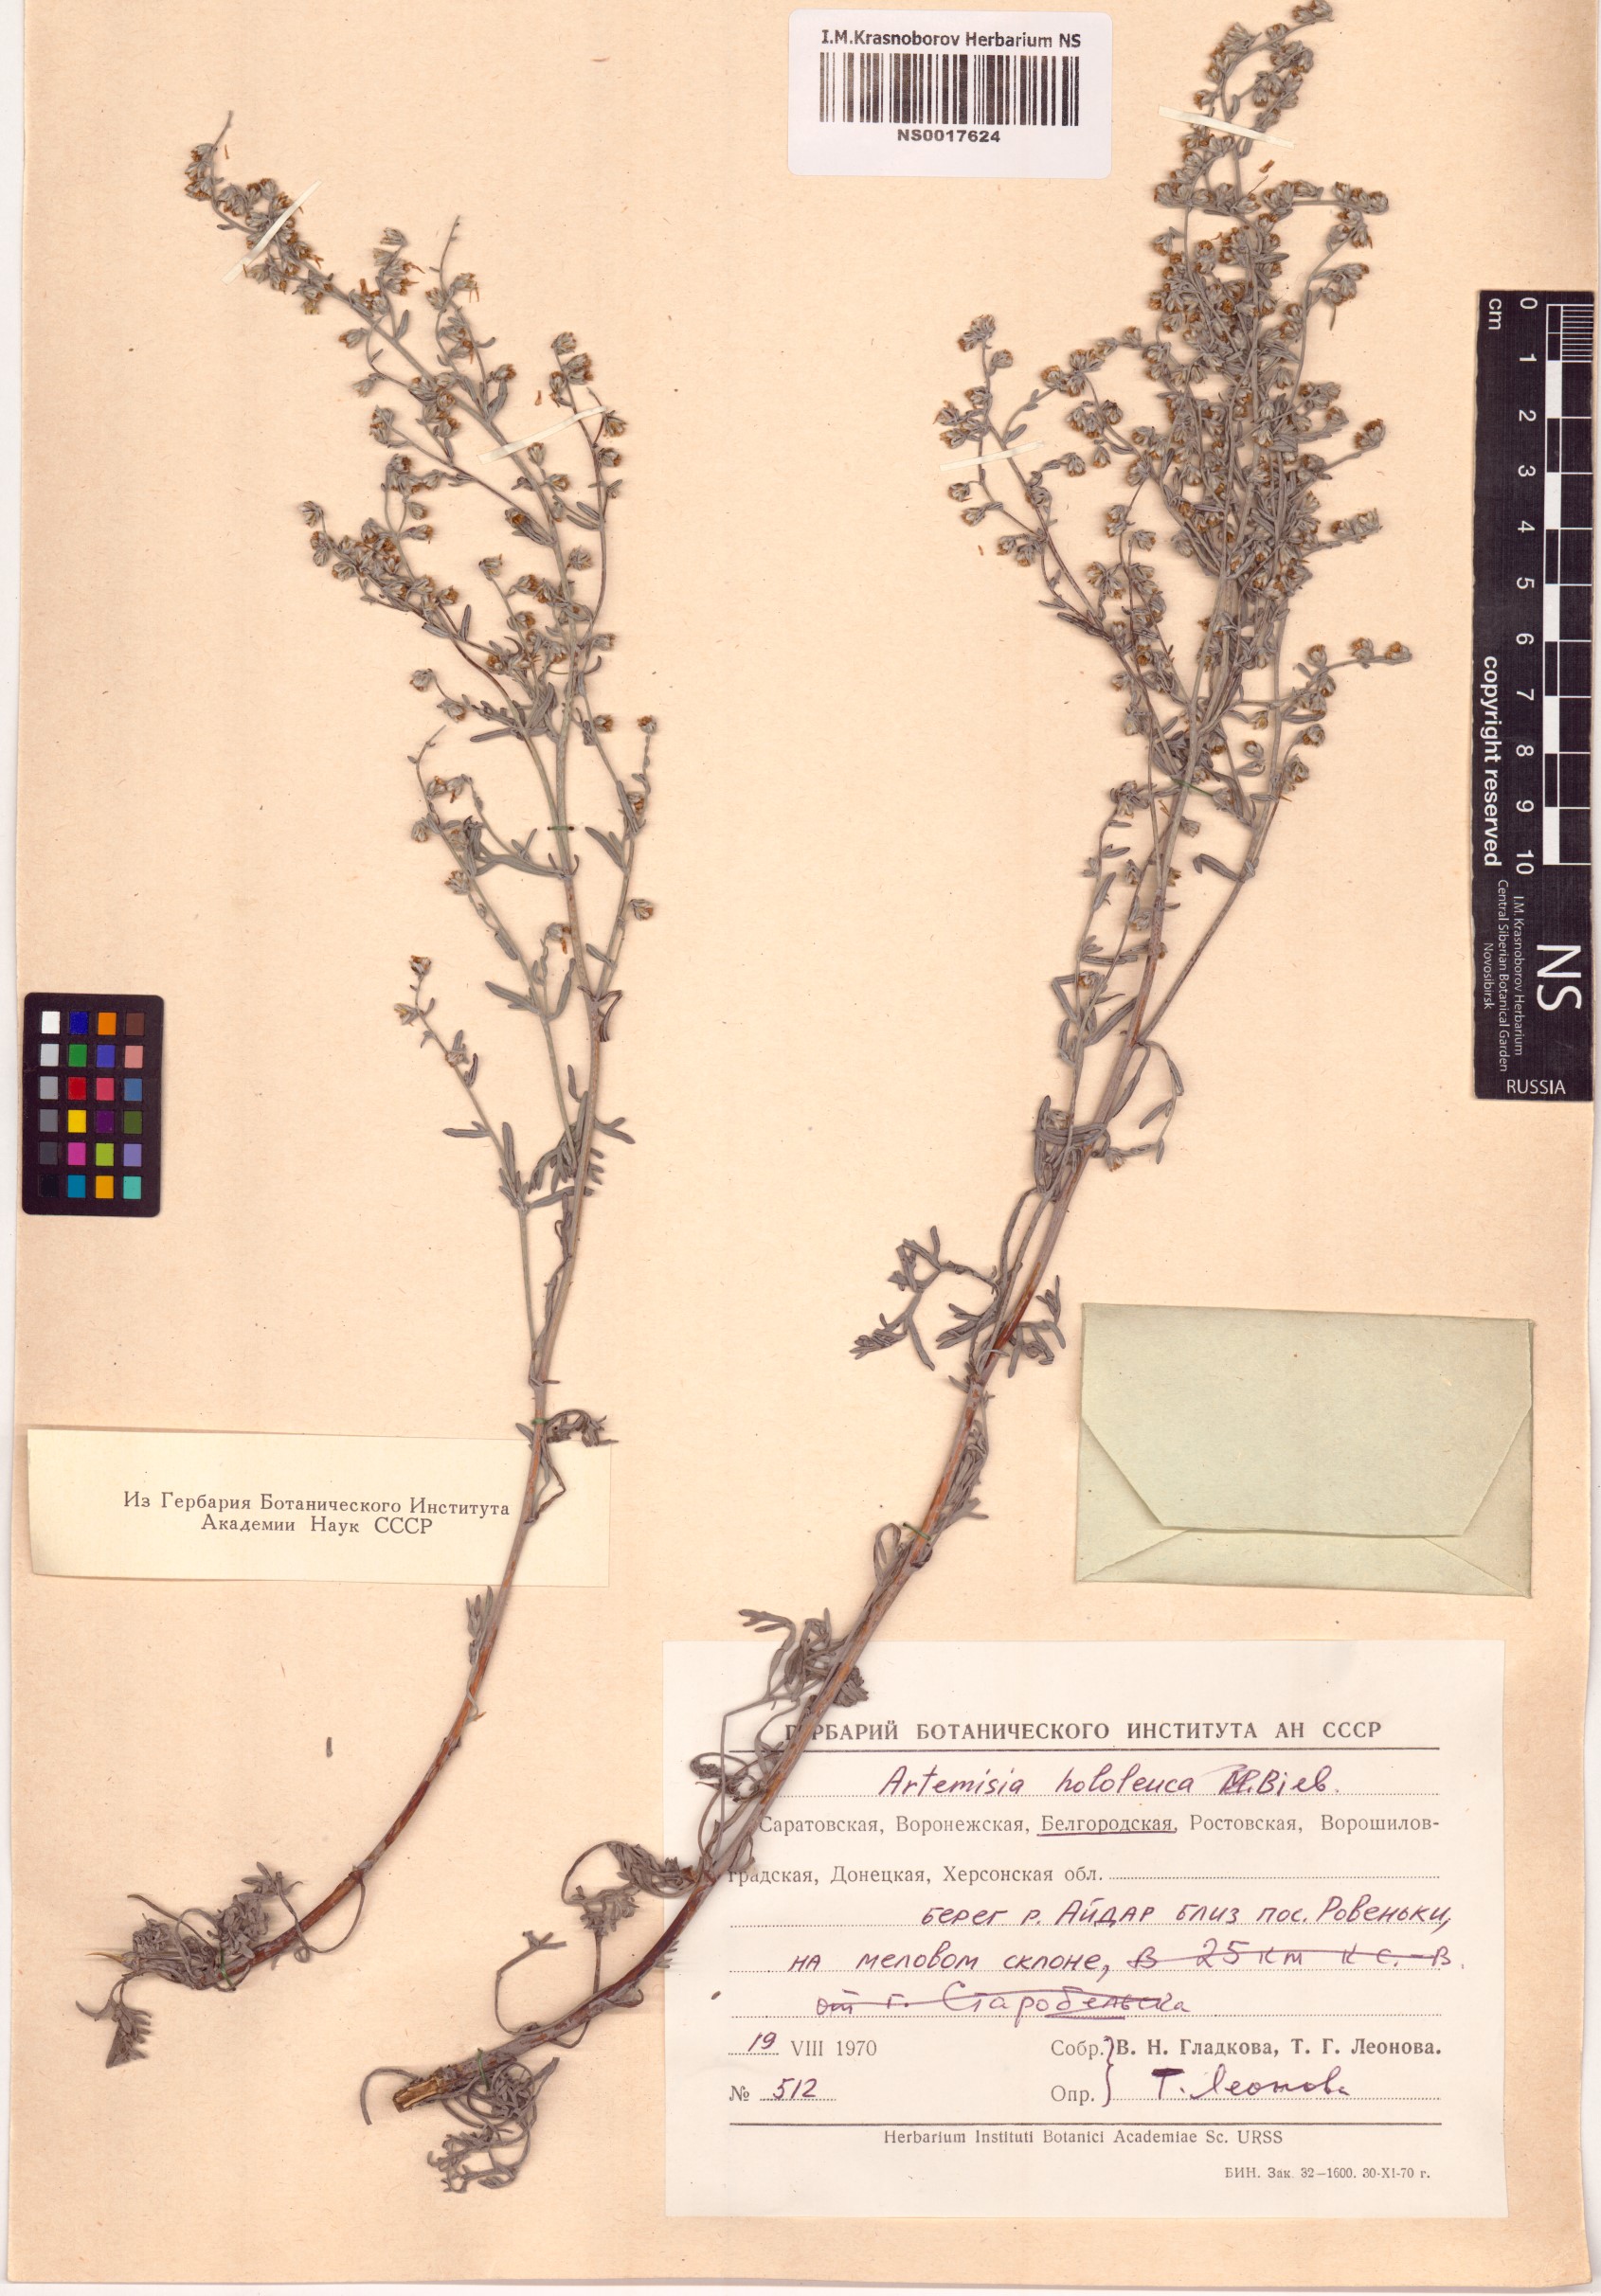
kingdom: Plantae
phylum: Tracheophyta
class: Magnoliopsida
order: Asterales
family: Asteraceae
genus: Artemisia
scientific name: Artemisia hololeuca
